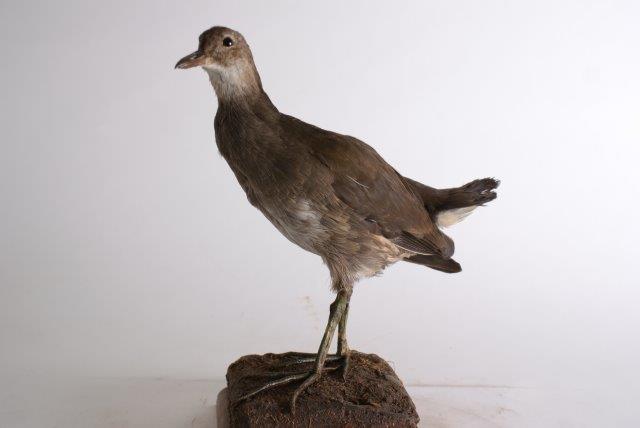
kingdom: Animalia
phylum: Chordata
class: Aves
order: Gruiformes
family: Rallidae
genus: Gallinula
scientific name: Gallinula chloropus
